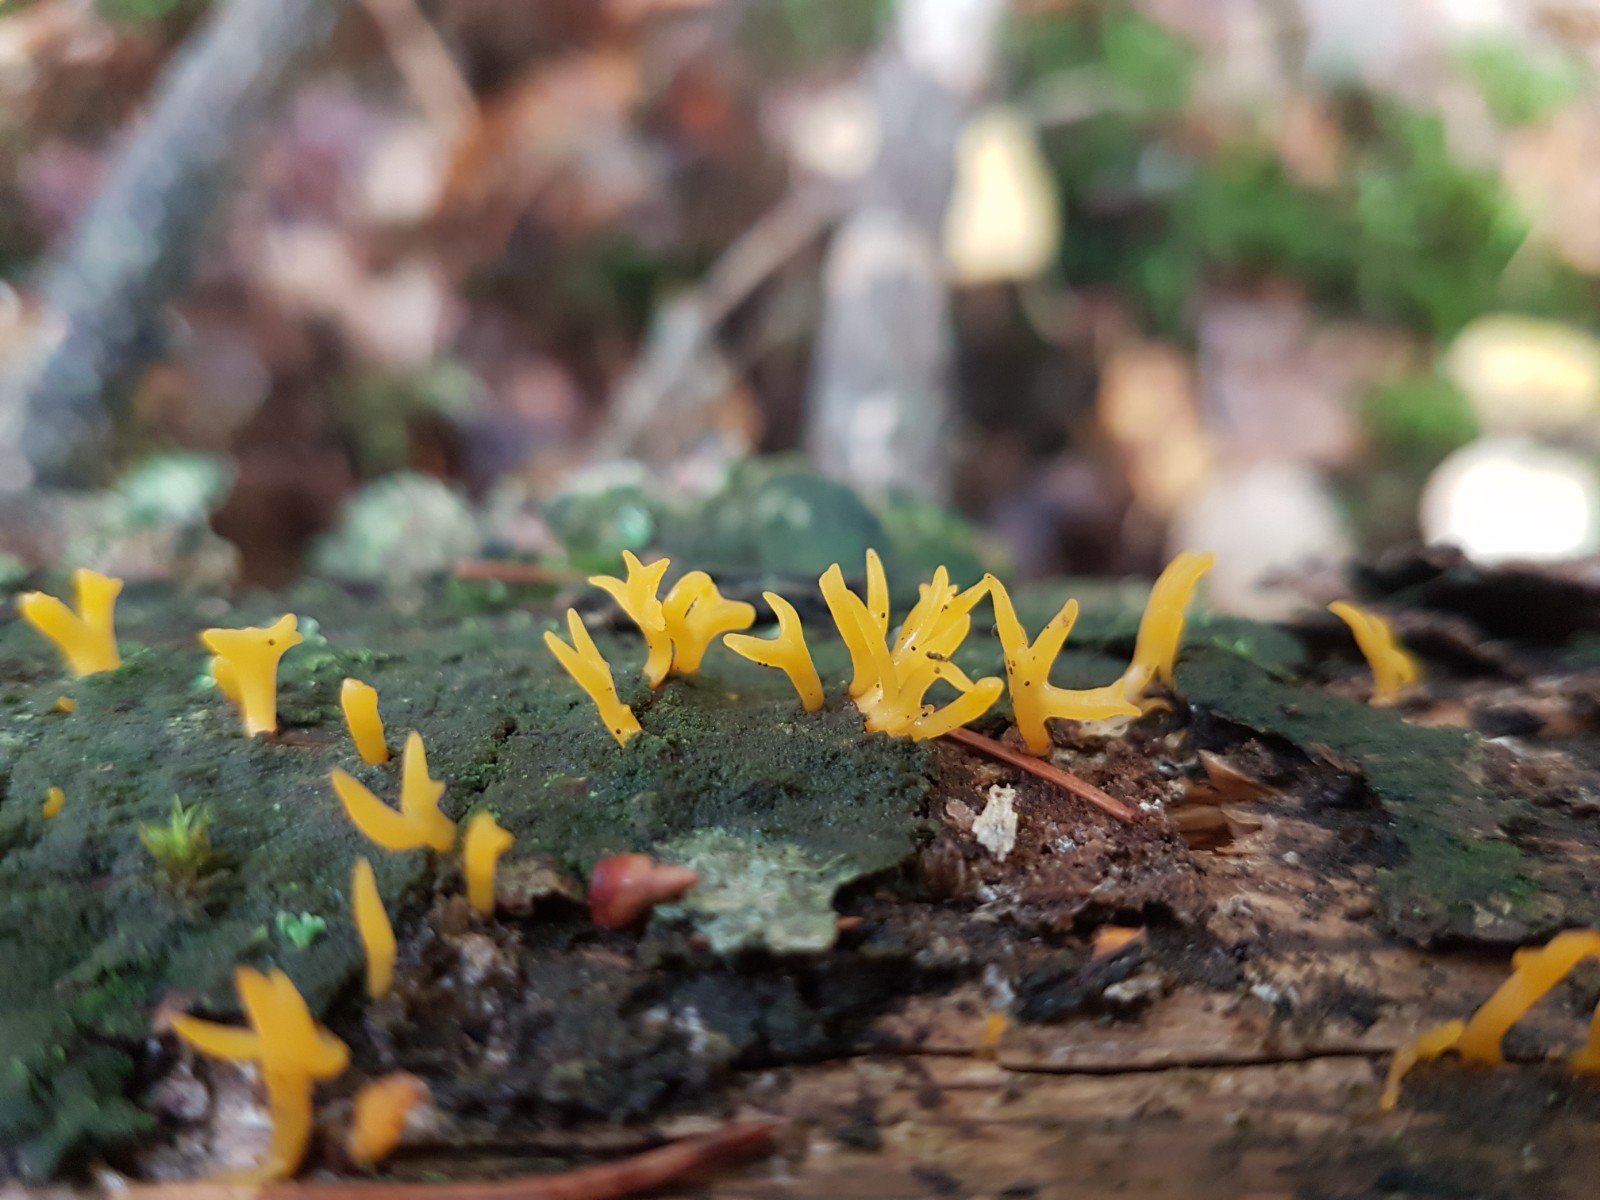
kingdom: Fungi
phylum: Basidiomycota
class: Dacrymycetes
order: Dacrymycetales
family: Dacrymycetaceae
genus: Calocera
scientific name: Calocera cornea
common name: liden guldgaffel
